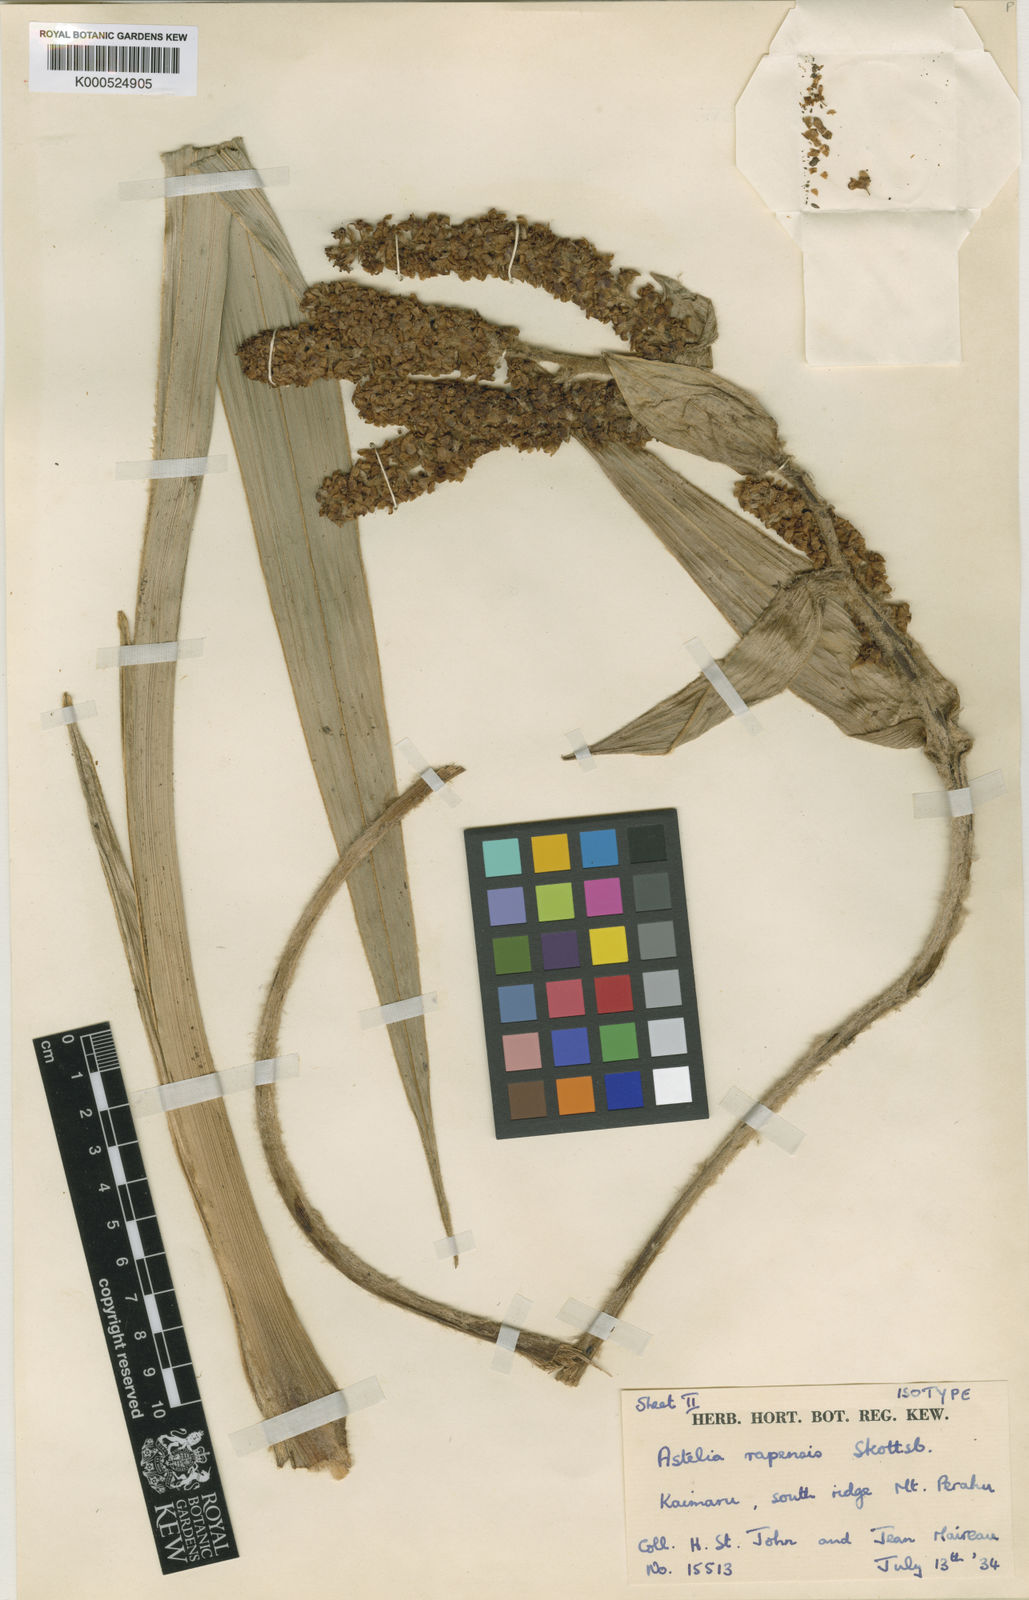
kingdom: Plantae
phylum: Tracheophyta
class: Liliopsida
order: Asparagales
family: Asteliaceae
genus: Astelia
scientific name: Astelia rapensis
